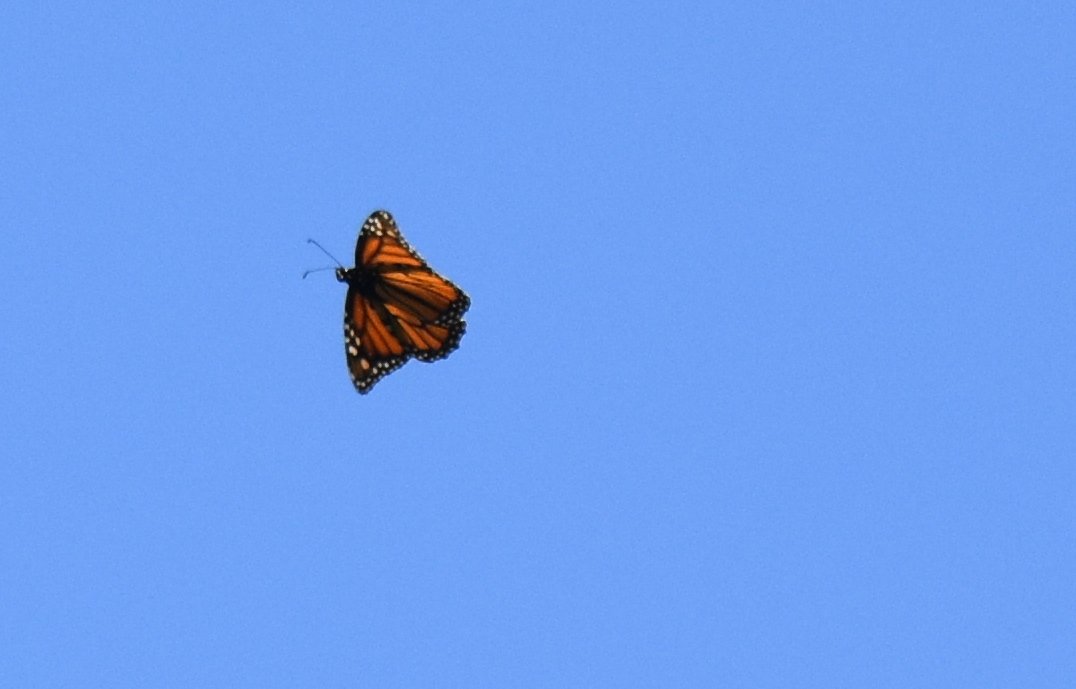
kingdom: Animalia
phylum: Arthropoda
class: Insecta
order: Lepidoptera
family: Nymphalidae
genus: Danaus
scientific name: Danaus plexippus
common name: Monarch
